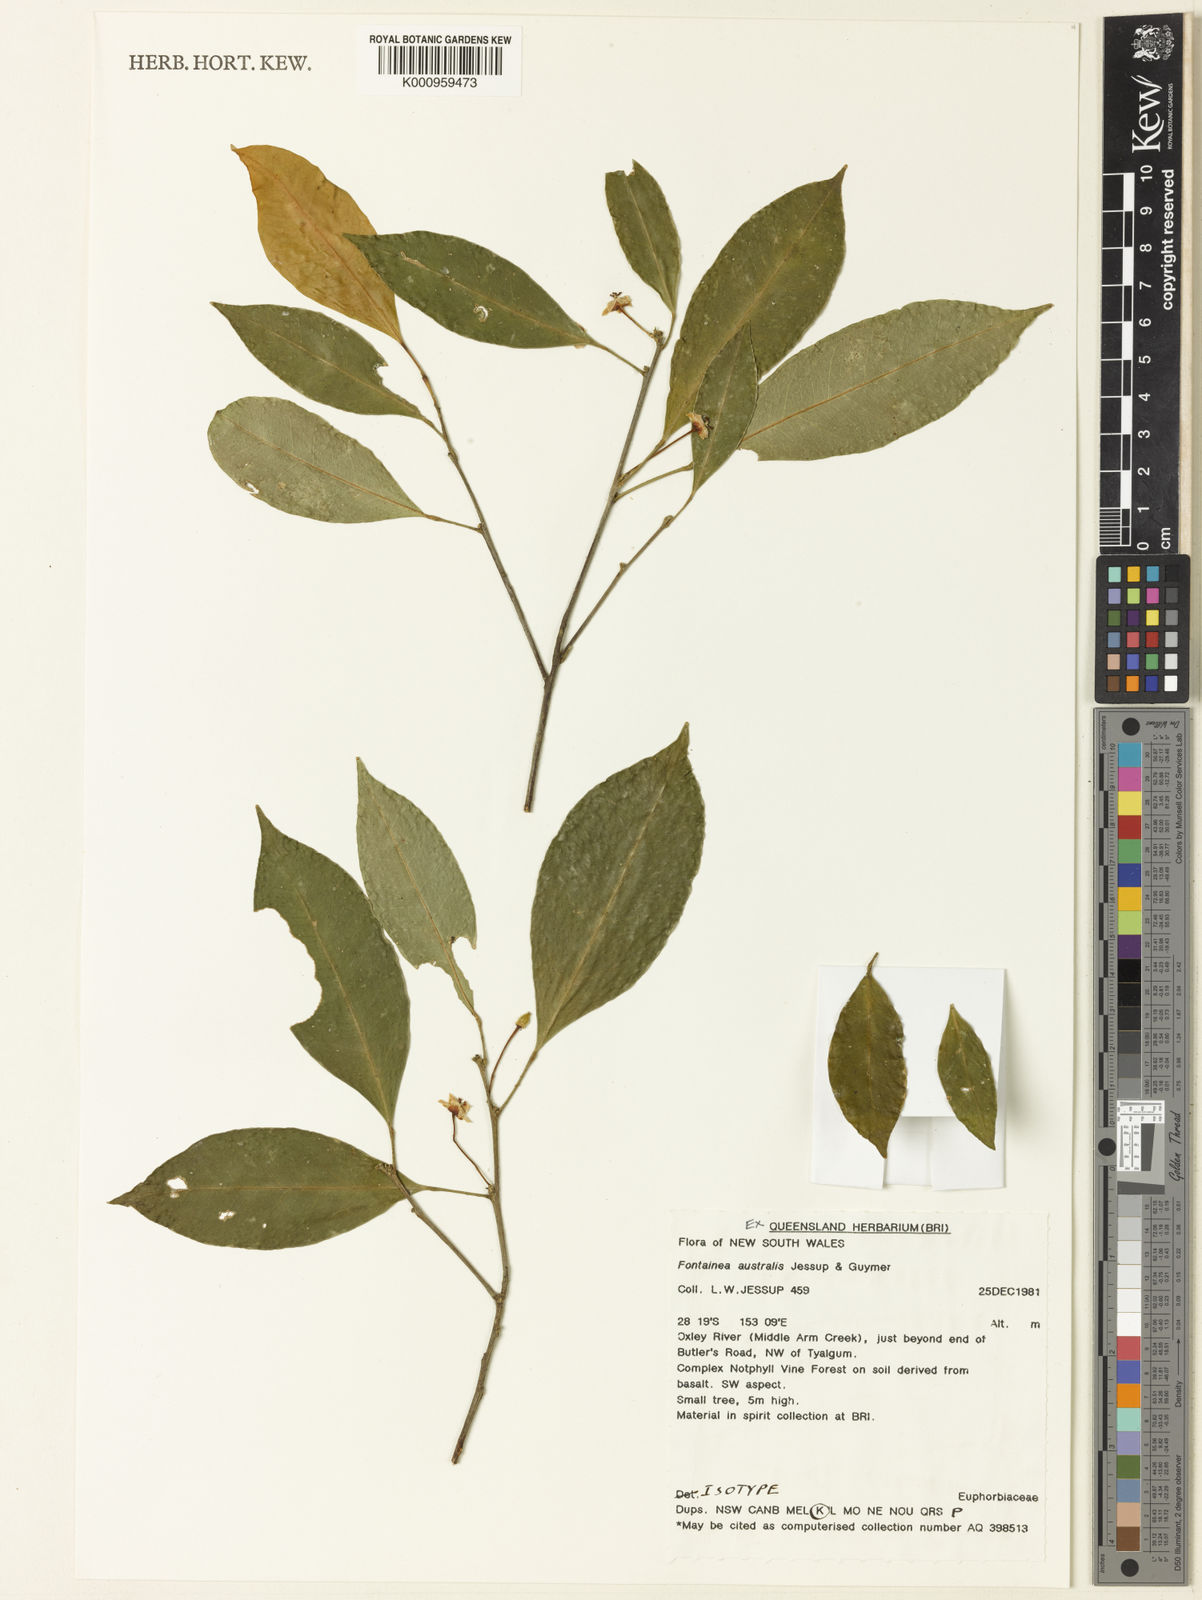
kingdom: Plantae
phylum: Tracheophyta
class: Magnoliopsida
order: Malpighiales
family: Euphorbiaceae
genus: Fontainea
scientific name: Fontainea australis
